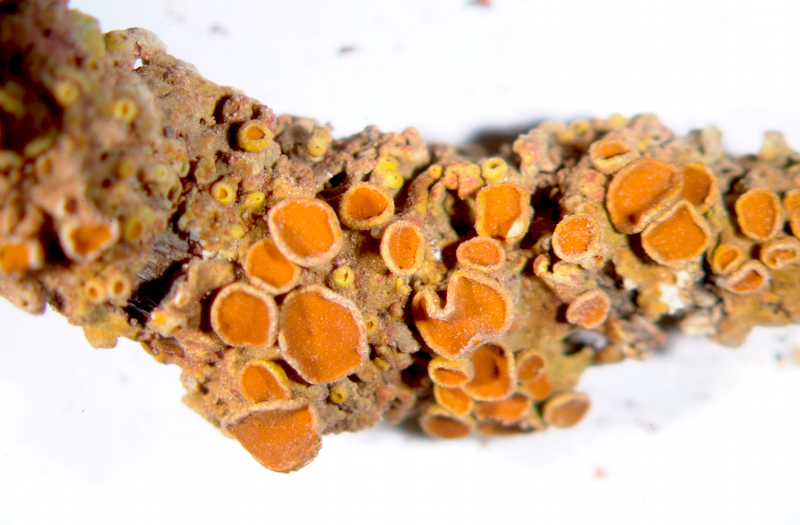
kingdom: Fungi
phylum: Ascomycota
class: Lecanoromycetes
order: Teloschistales
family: Teloschistaceae
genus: Dufourea
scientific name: Dufourea karrooensis
